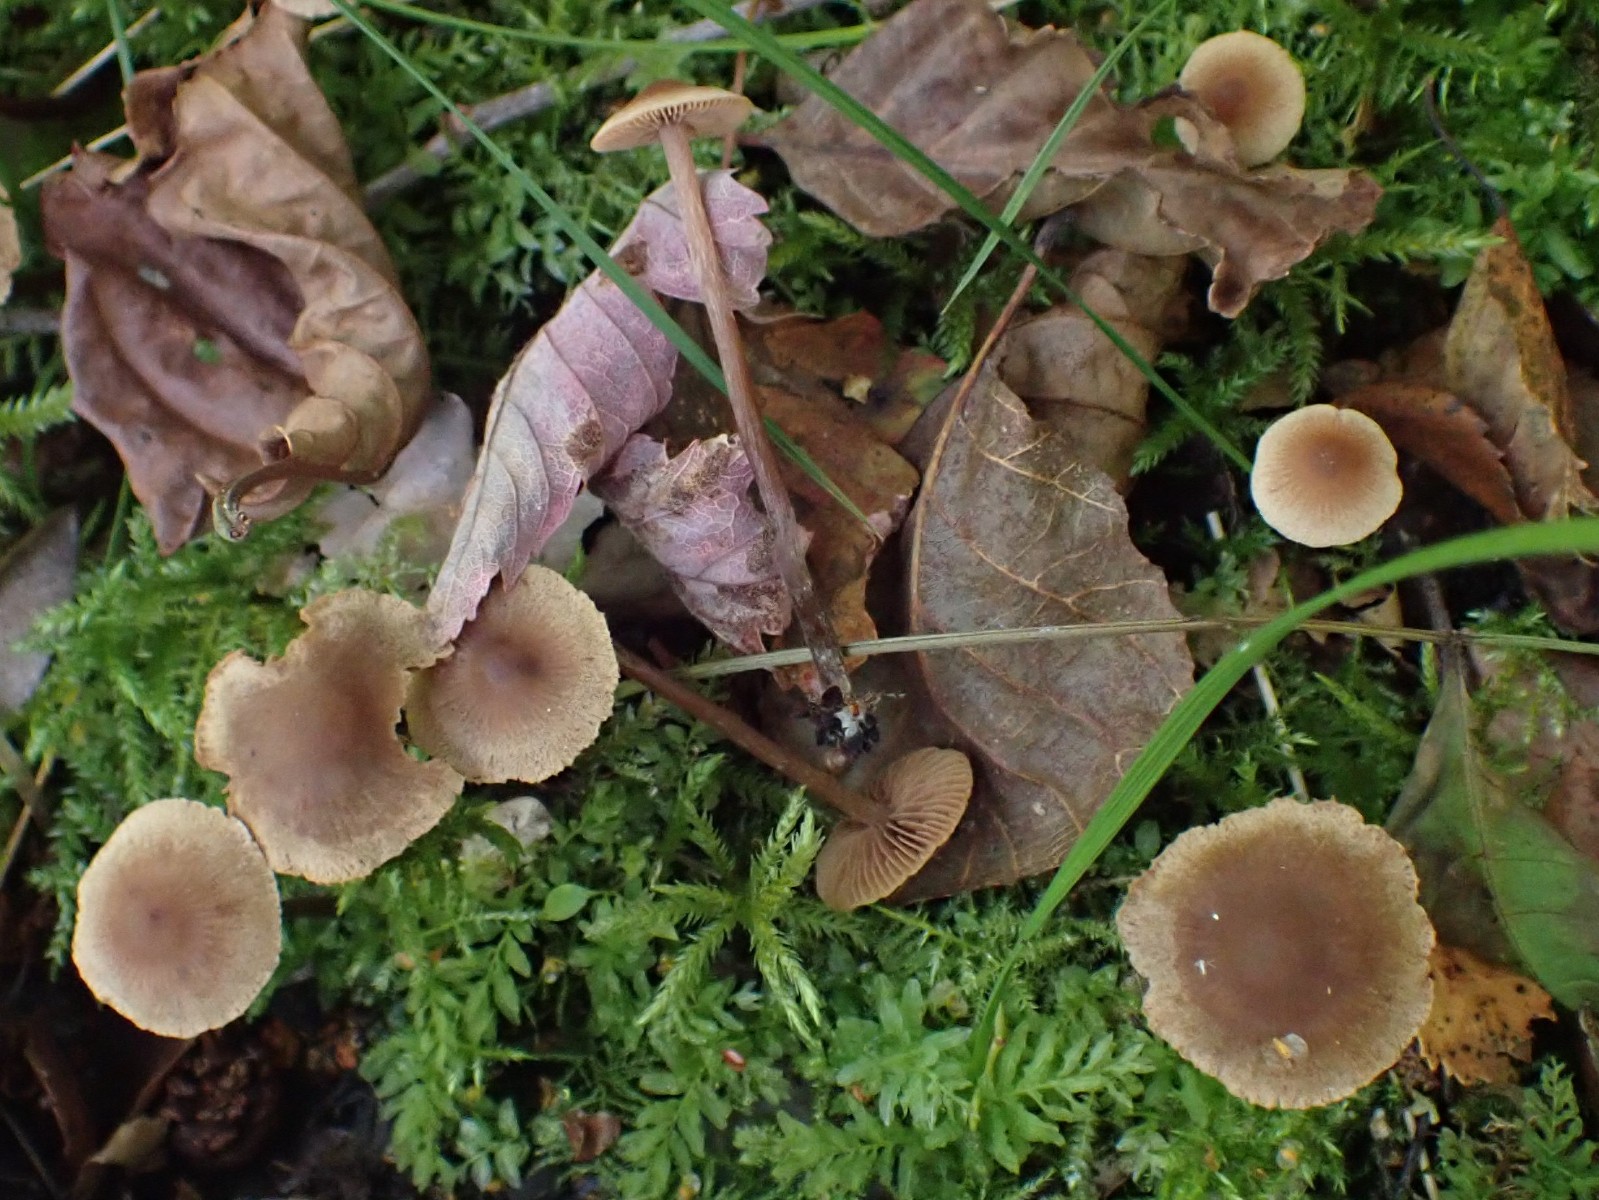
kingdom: Fungi
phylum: Basidiomycota
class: Agaricomycetes
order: Agaricales
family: Hymenogastraceae
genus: Naucoria
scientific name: Naucoria escharioides
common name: lys elle-knaphat
